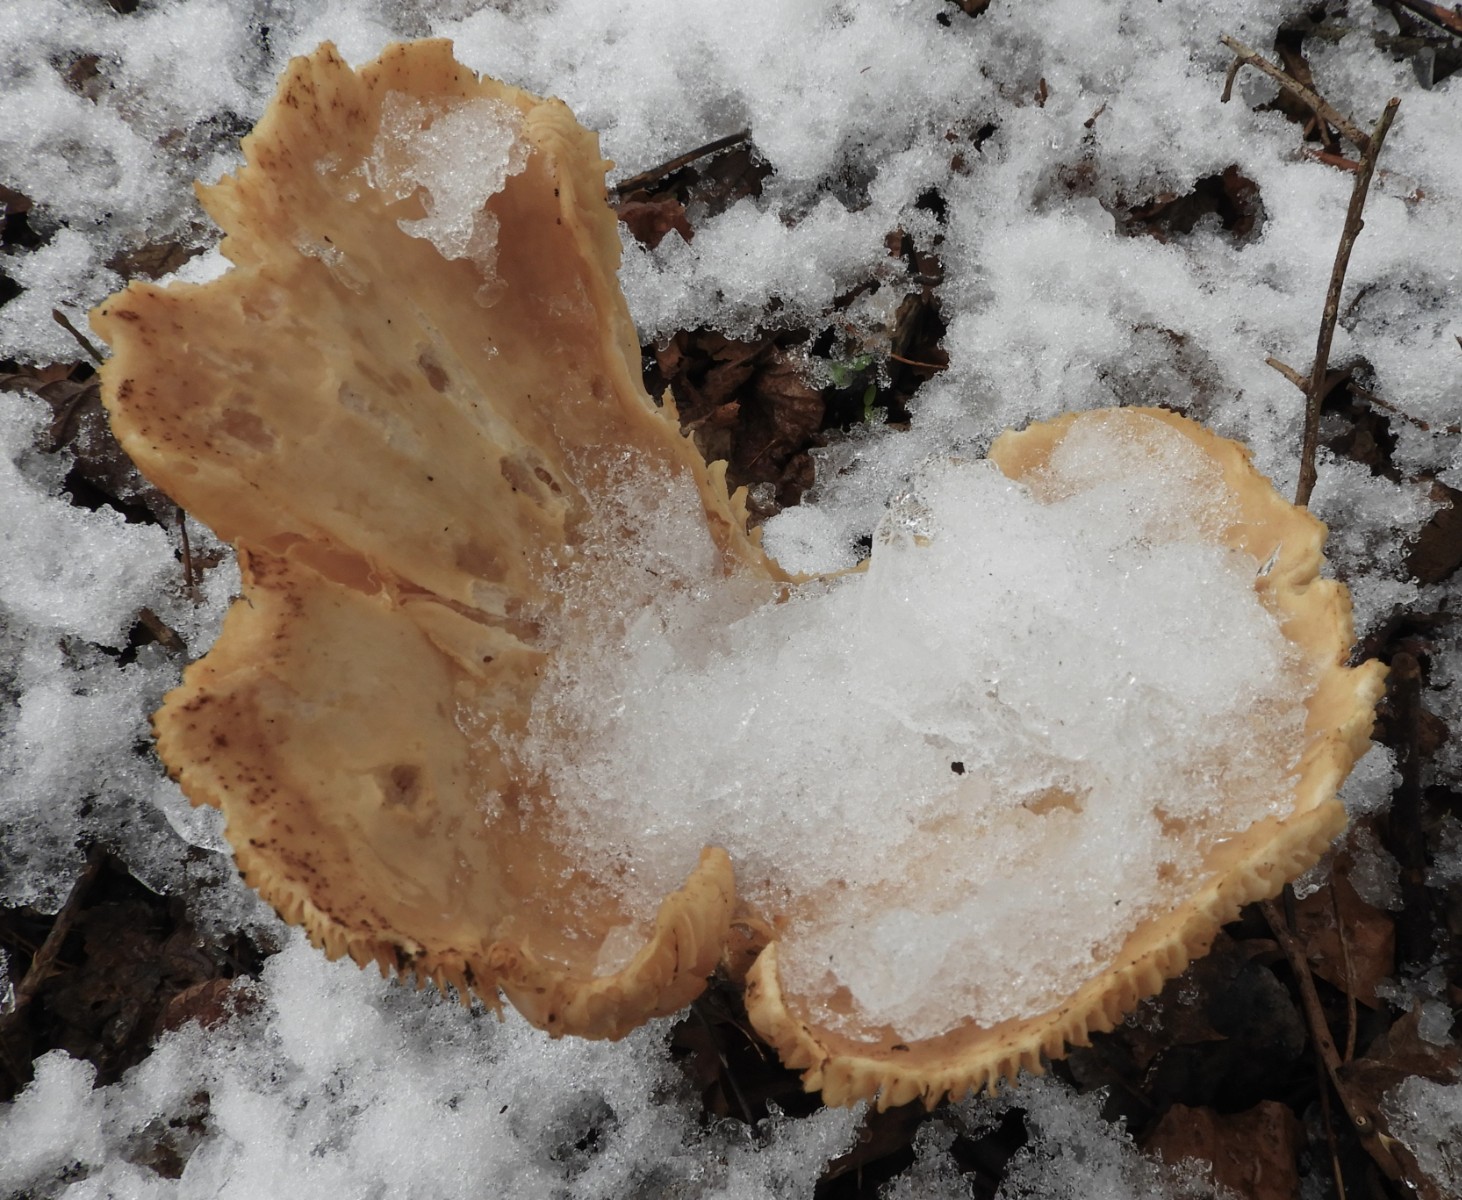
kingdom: Fungi
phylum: Basidiomycota
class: Agaricomycetes
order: Agaricales
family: Tricholomataceae
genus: Infundibulicybe
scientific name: Infundibulicybe geotropa
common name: stor tragthat
